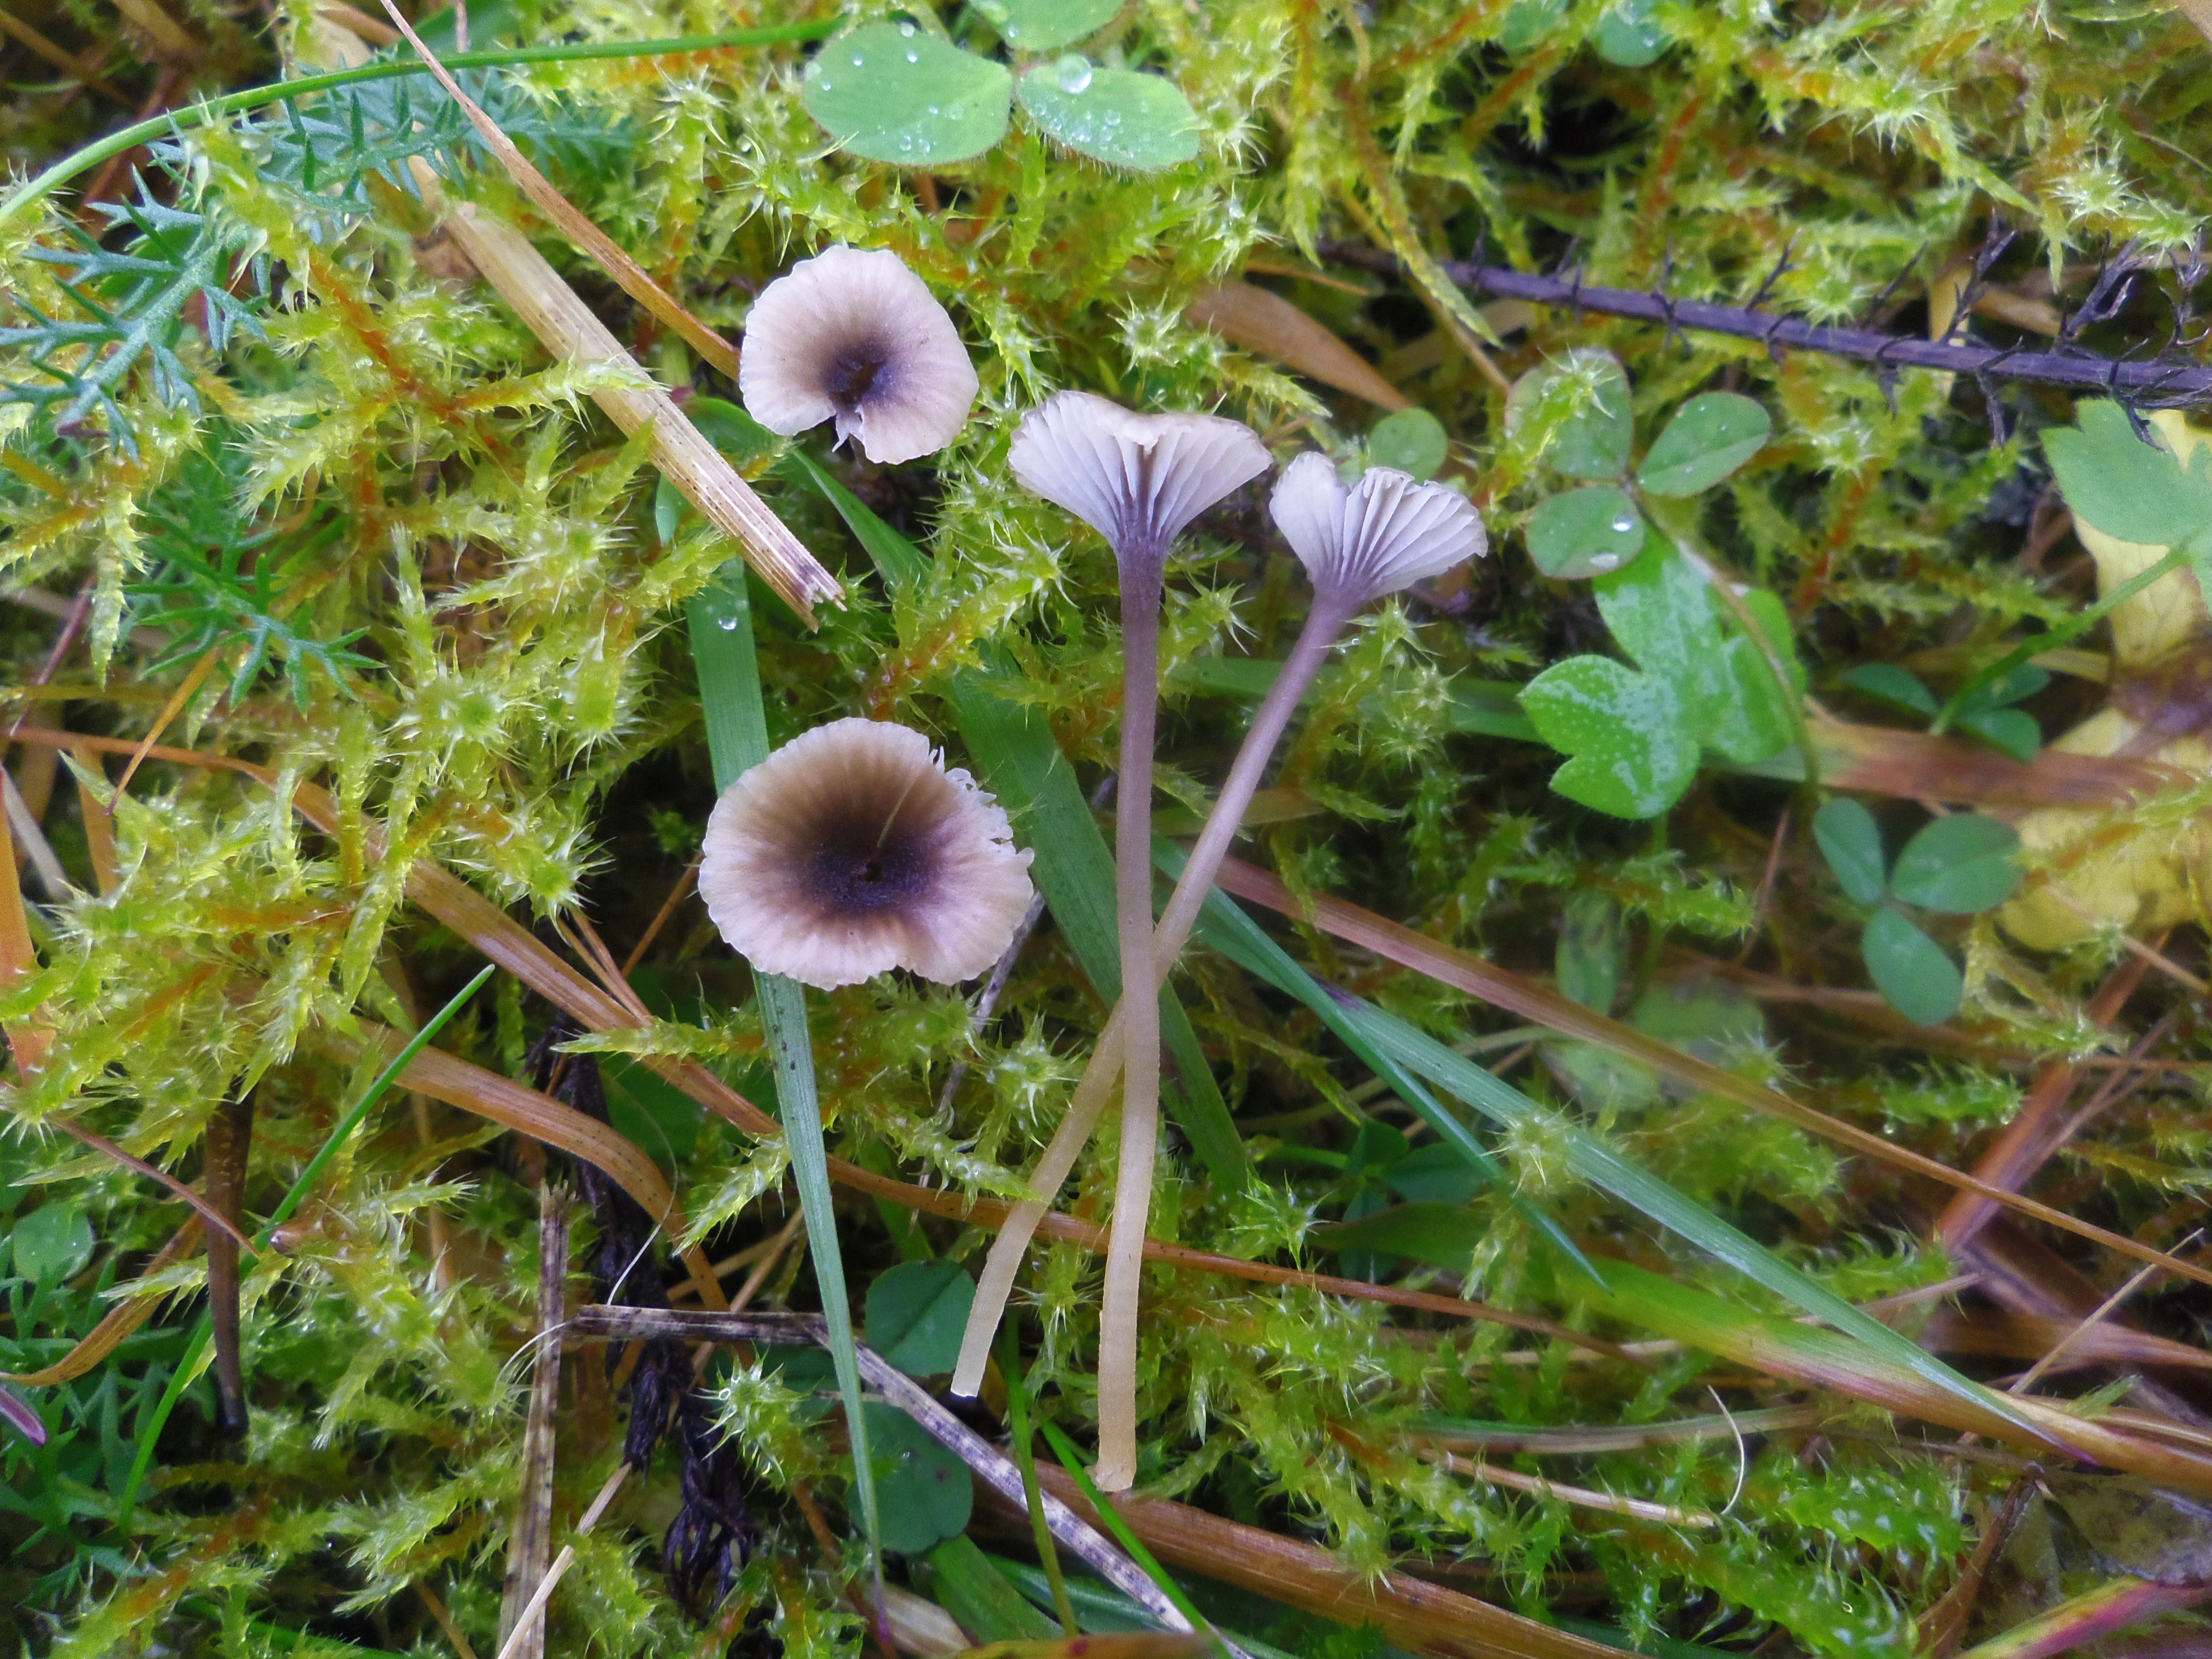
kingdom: Fungi
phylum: Basidiomycota
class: Agaricomycetes
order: Hymenochaetales
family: Rickenellaceae
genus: Rickenella
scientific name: Rickenella swartzii
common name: Collared mosscap
